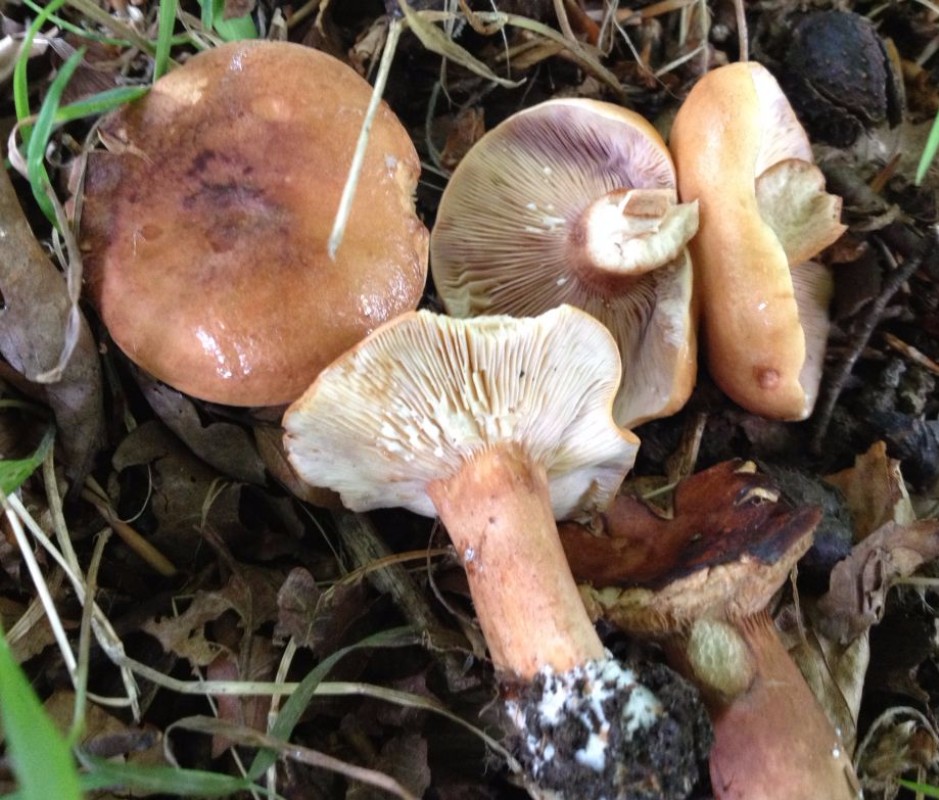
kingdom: Fungi
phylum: Basidiomycota
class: Agaricomycetes
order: Russulales
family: Russulaceae
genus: Lactarius
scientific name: Lactarius rubrocinctus
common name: halsbånd-mælkehat
